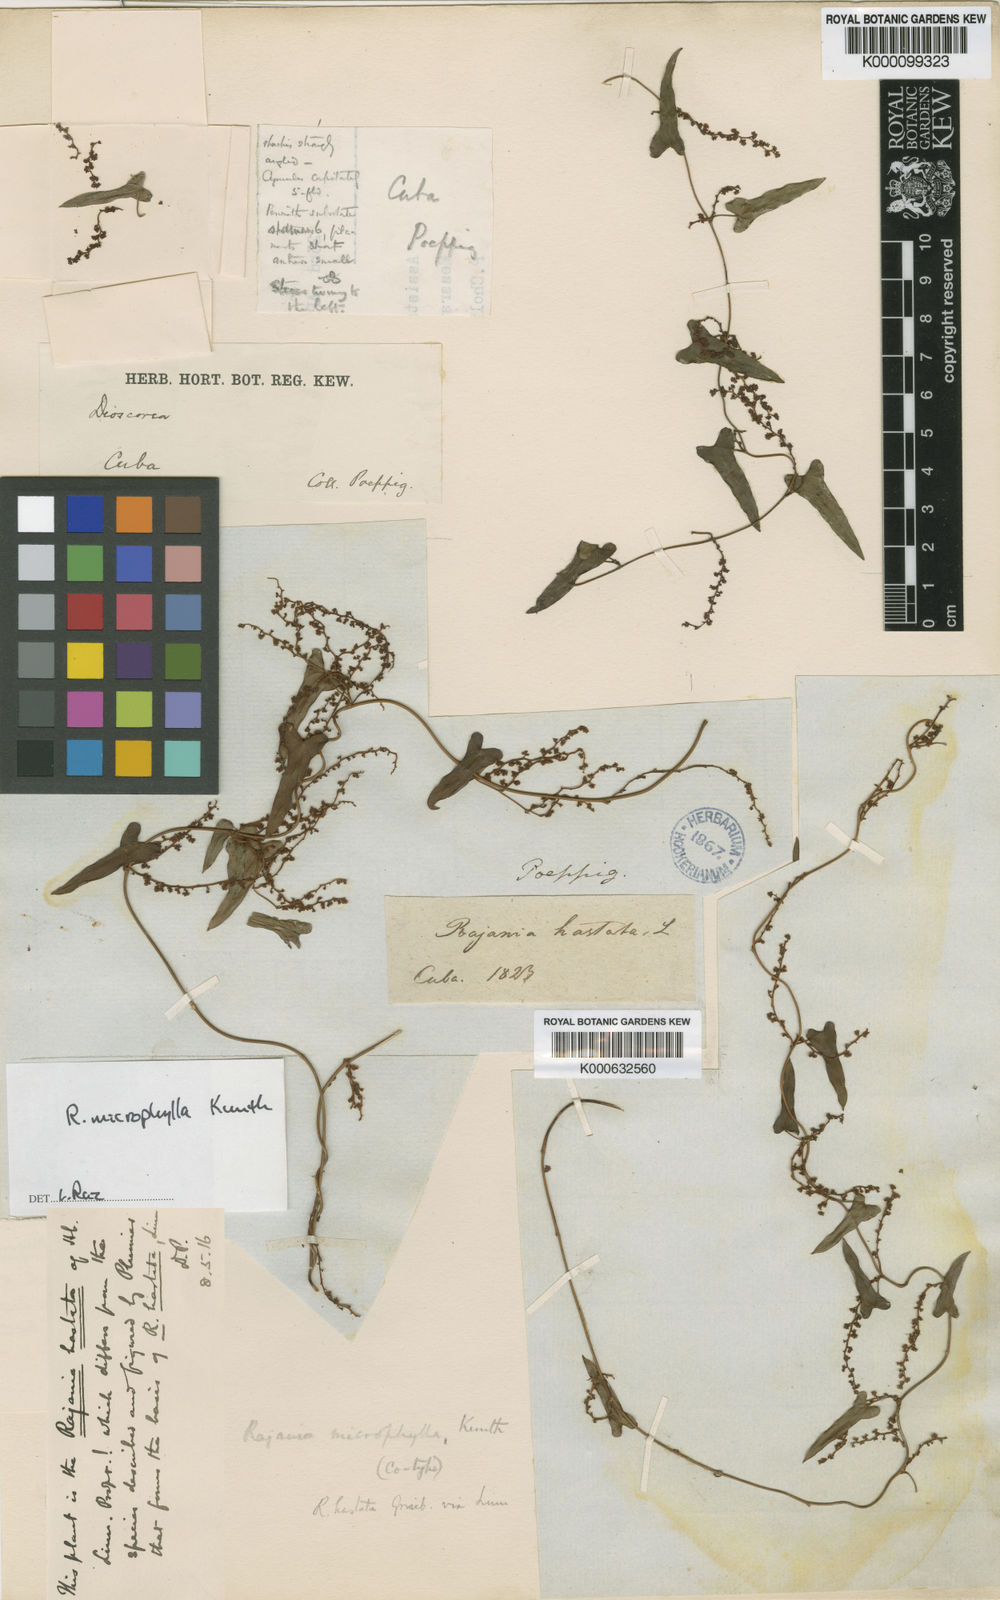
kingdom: Plantae
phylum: Tracheophyta
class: Liliopsida
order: Dioscoreales
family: Dioscoreaceae
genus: Dioscorea
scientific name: Dioscorea
